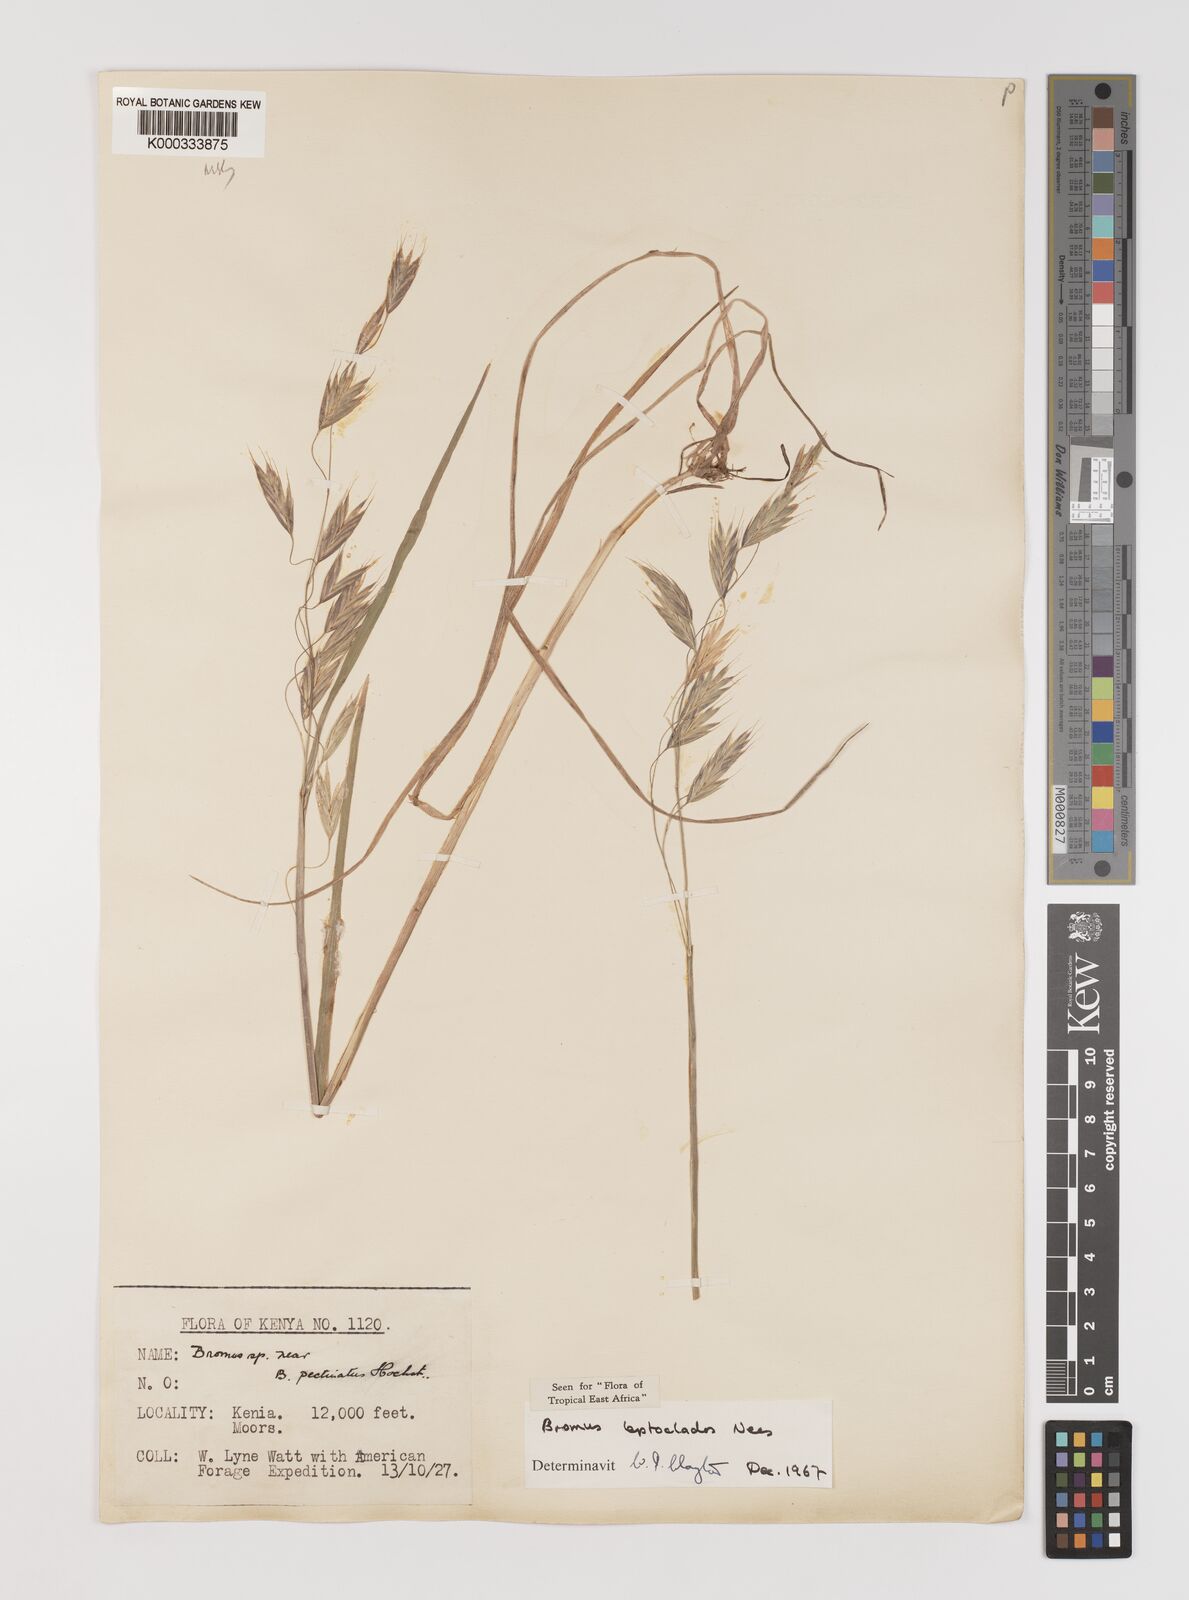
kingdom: Plantae
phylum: Tracheophyta
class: Liliopsida
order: Poales
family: Poaceae
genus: Bromus
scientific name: Bromus leptoclados
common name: Mountain bromegrass
